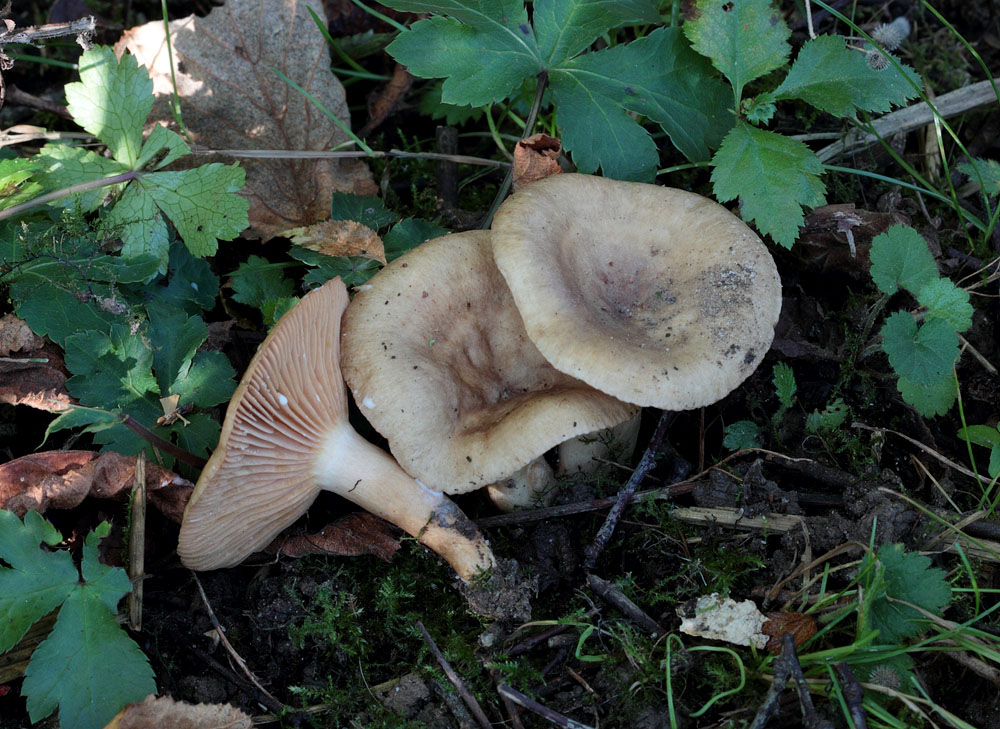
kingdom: Fungi
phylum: Basidiomycota
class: Agaricomycetes
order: Russulales
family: Russulaceae
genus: Lactarius
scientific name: Lactarius pyrogalus
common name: hassel-mælkehat
